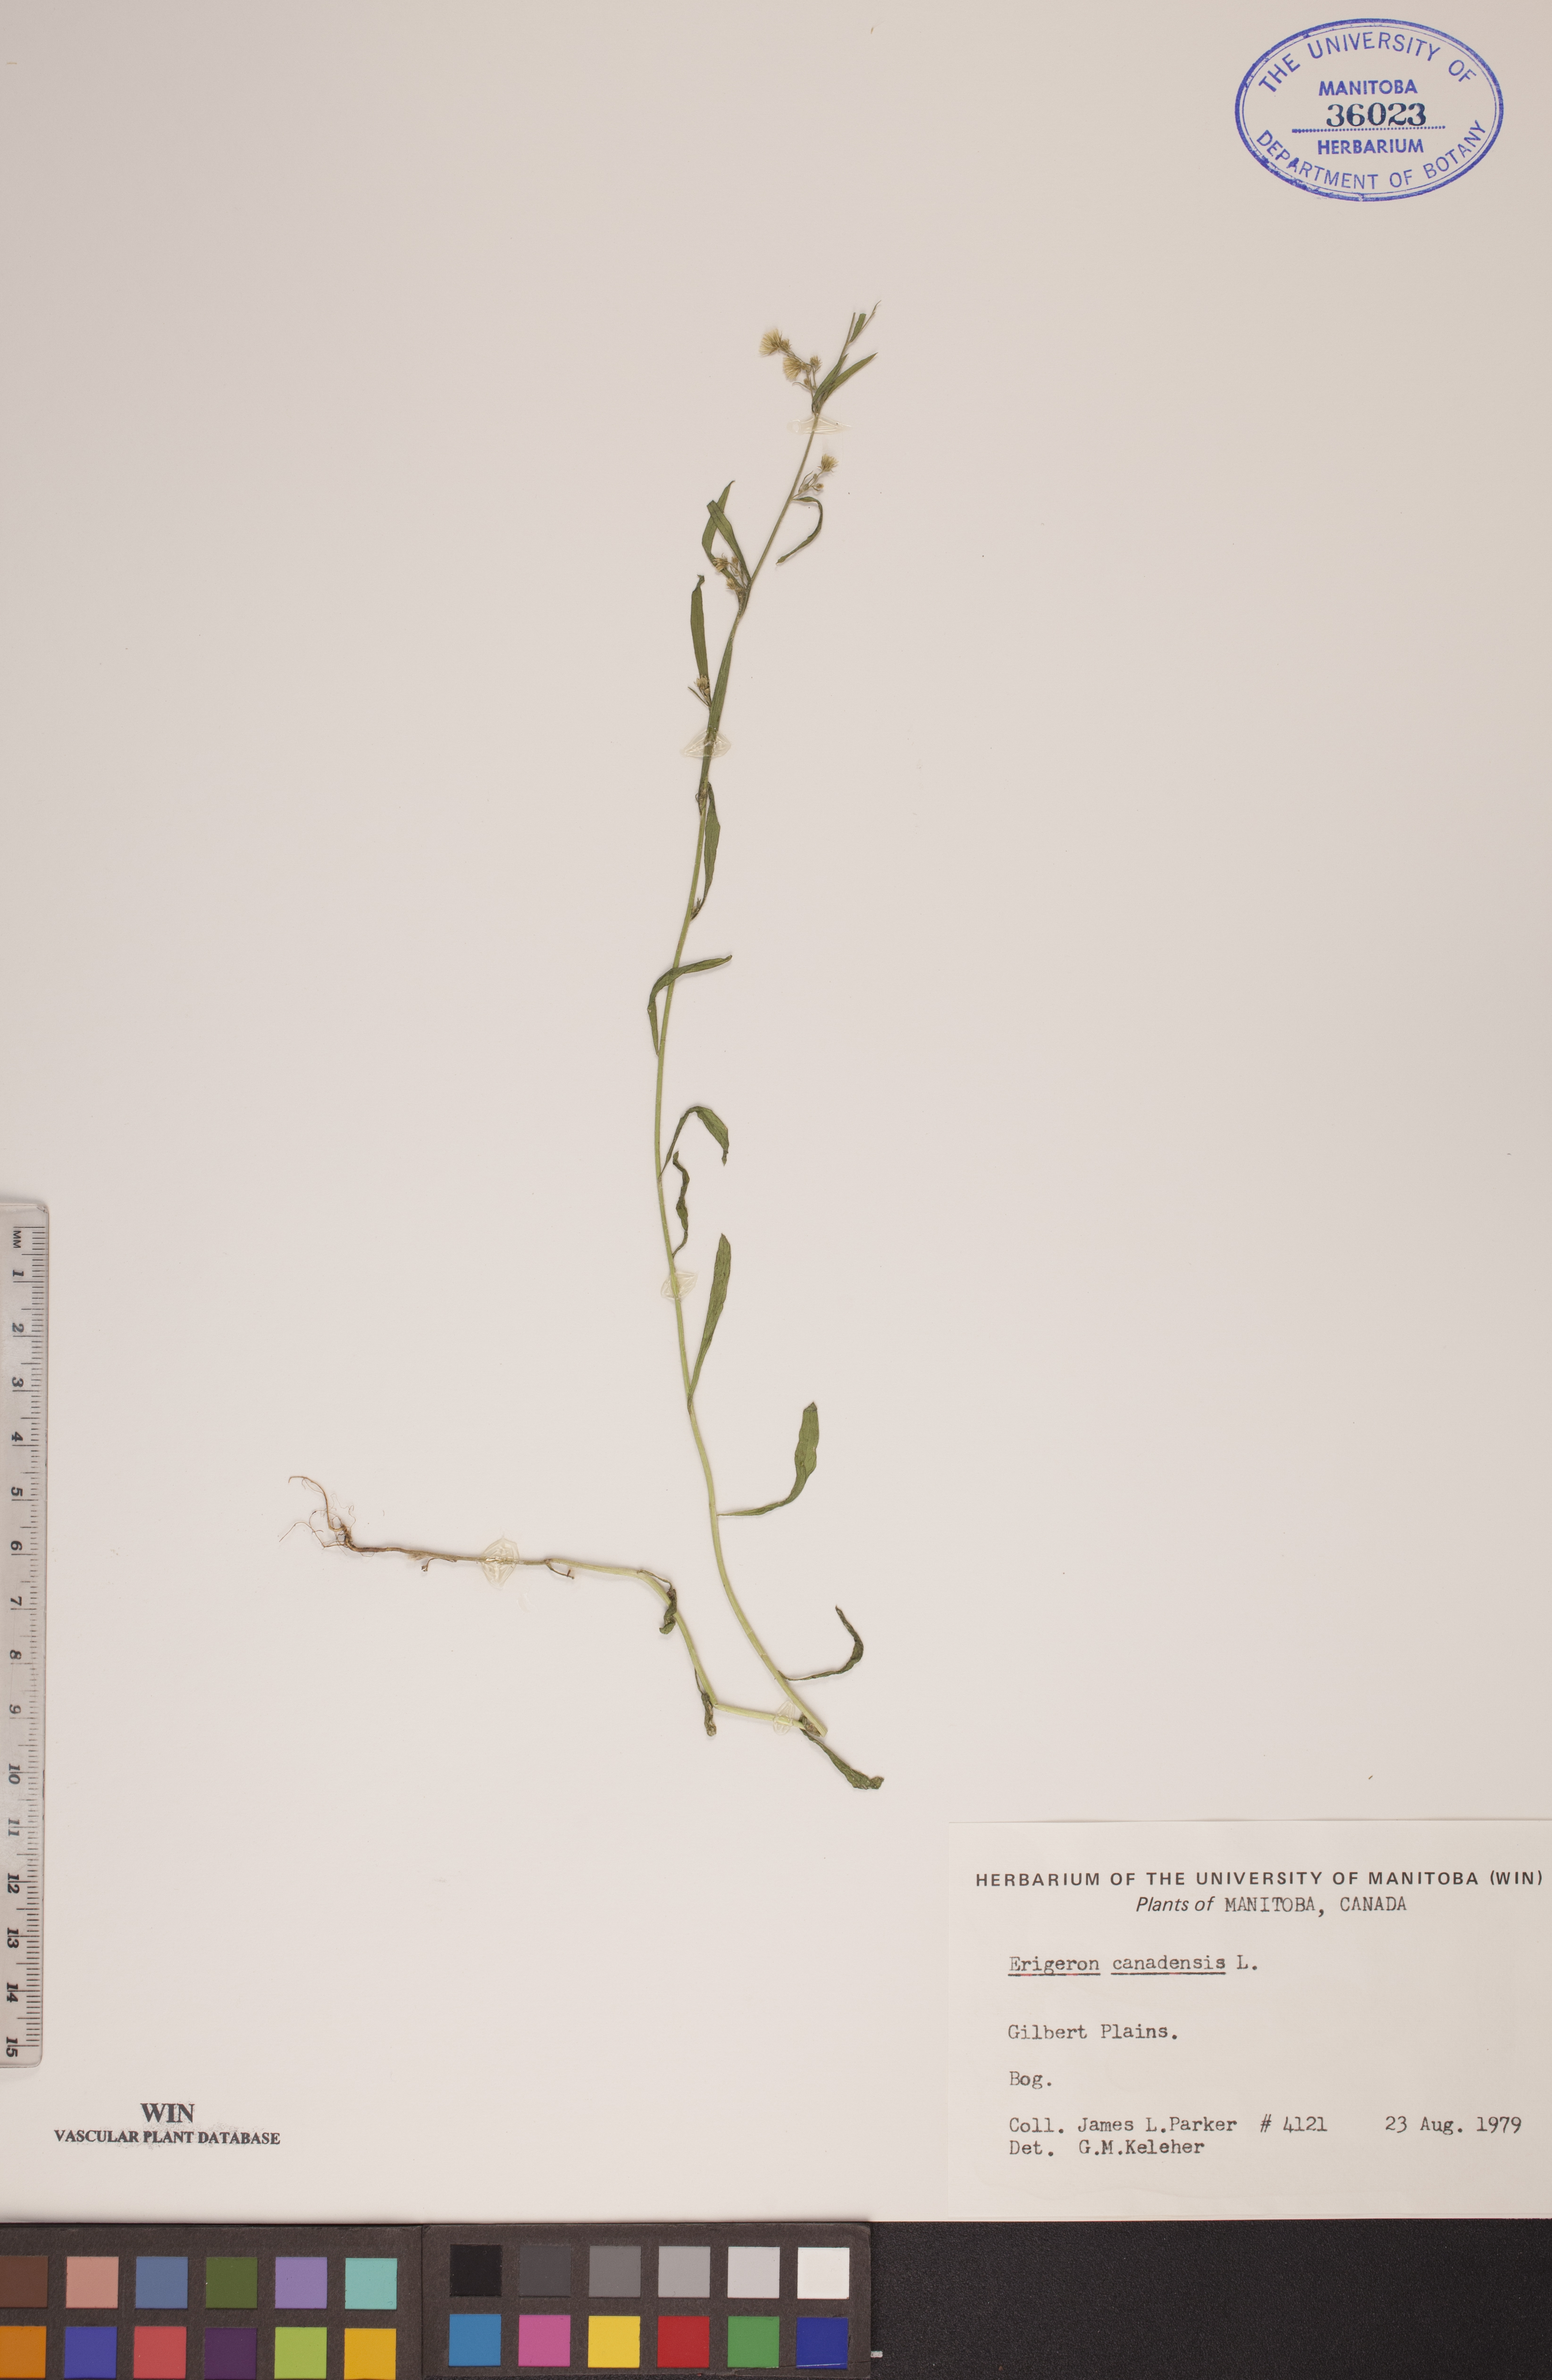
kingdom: Plantae
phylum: Tracheophyta
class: Magnoliopsida
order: Asterales
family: Asteraceae
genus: Erigeron
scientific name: Erigeron canadensis
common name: Canadian fleabane
